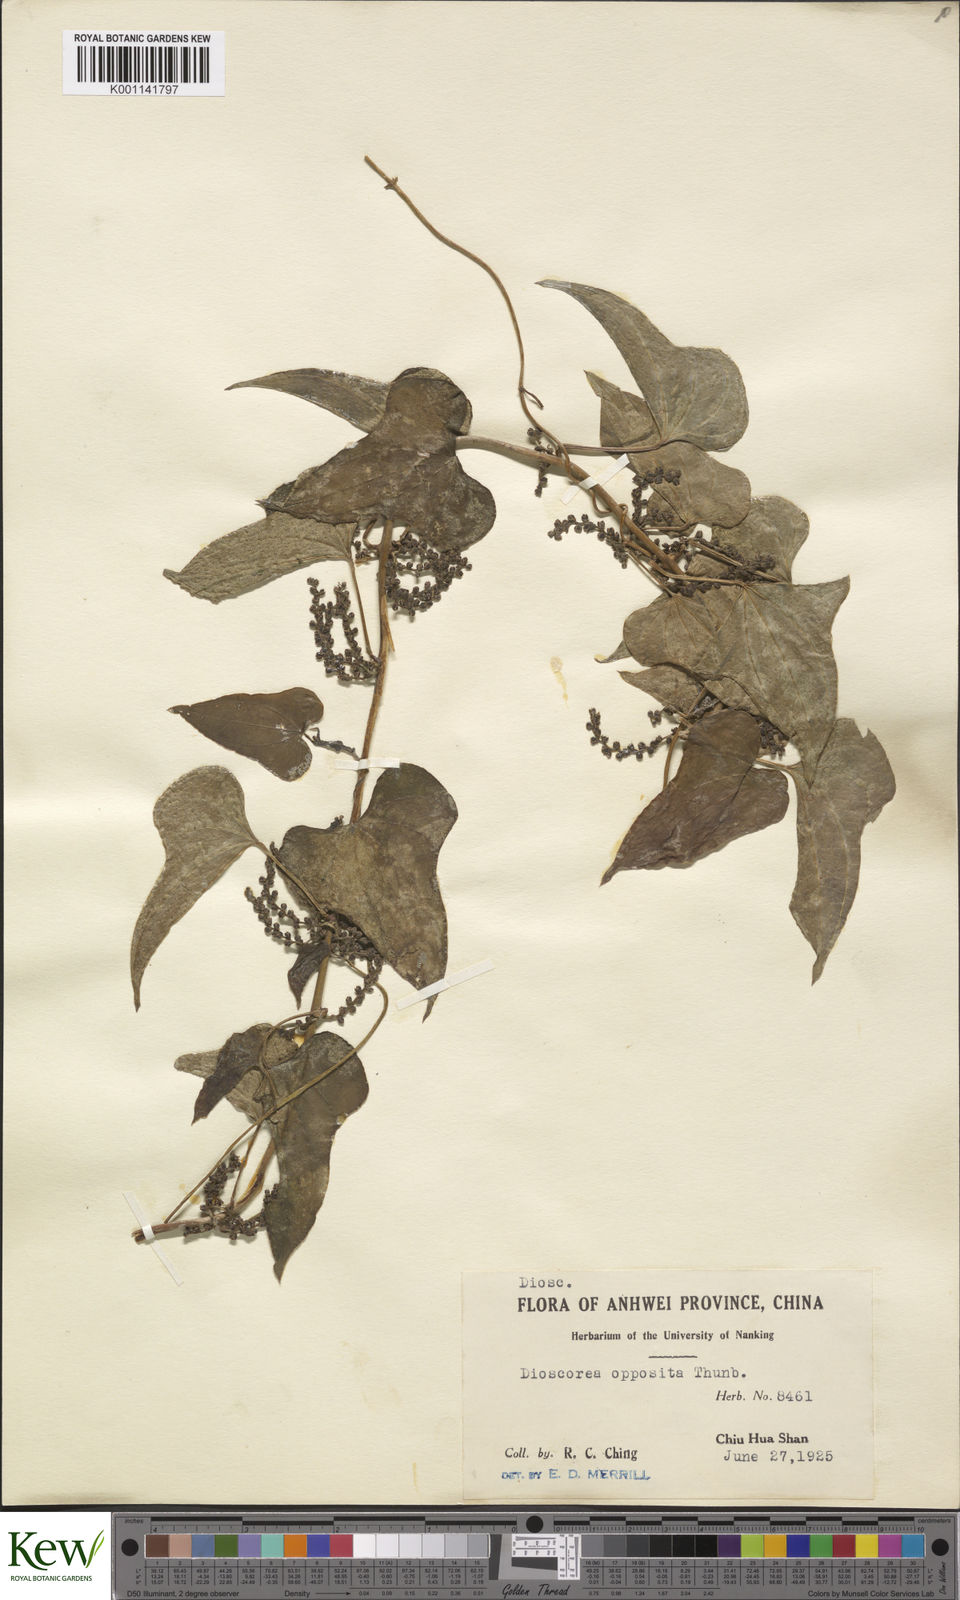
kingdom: Plantae
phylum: Tracheophyta
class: Liliopsida
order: Dioscoreales
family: Dioscoreaceae
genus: Dioscorea
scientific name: Dioscorea oppositifolia
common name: Chinese yam
